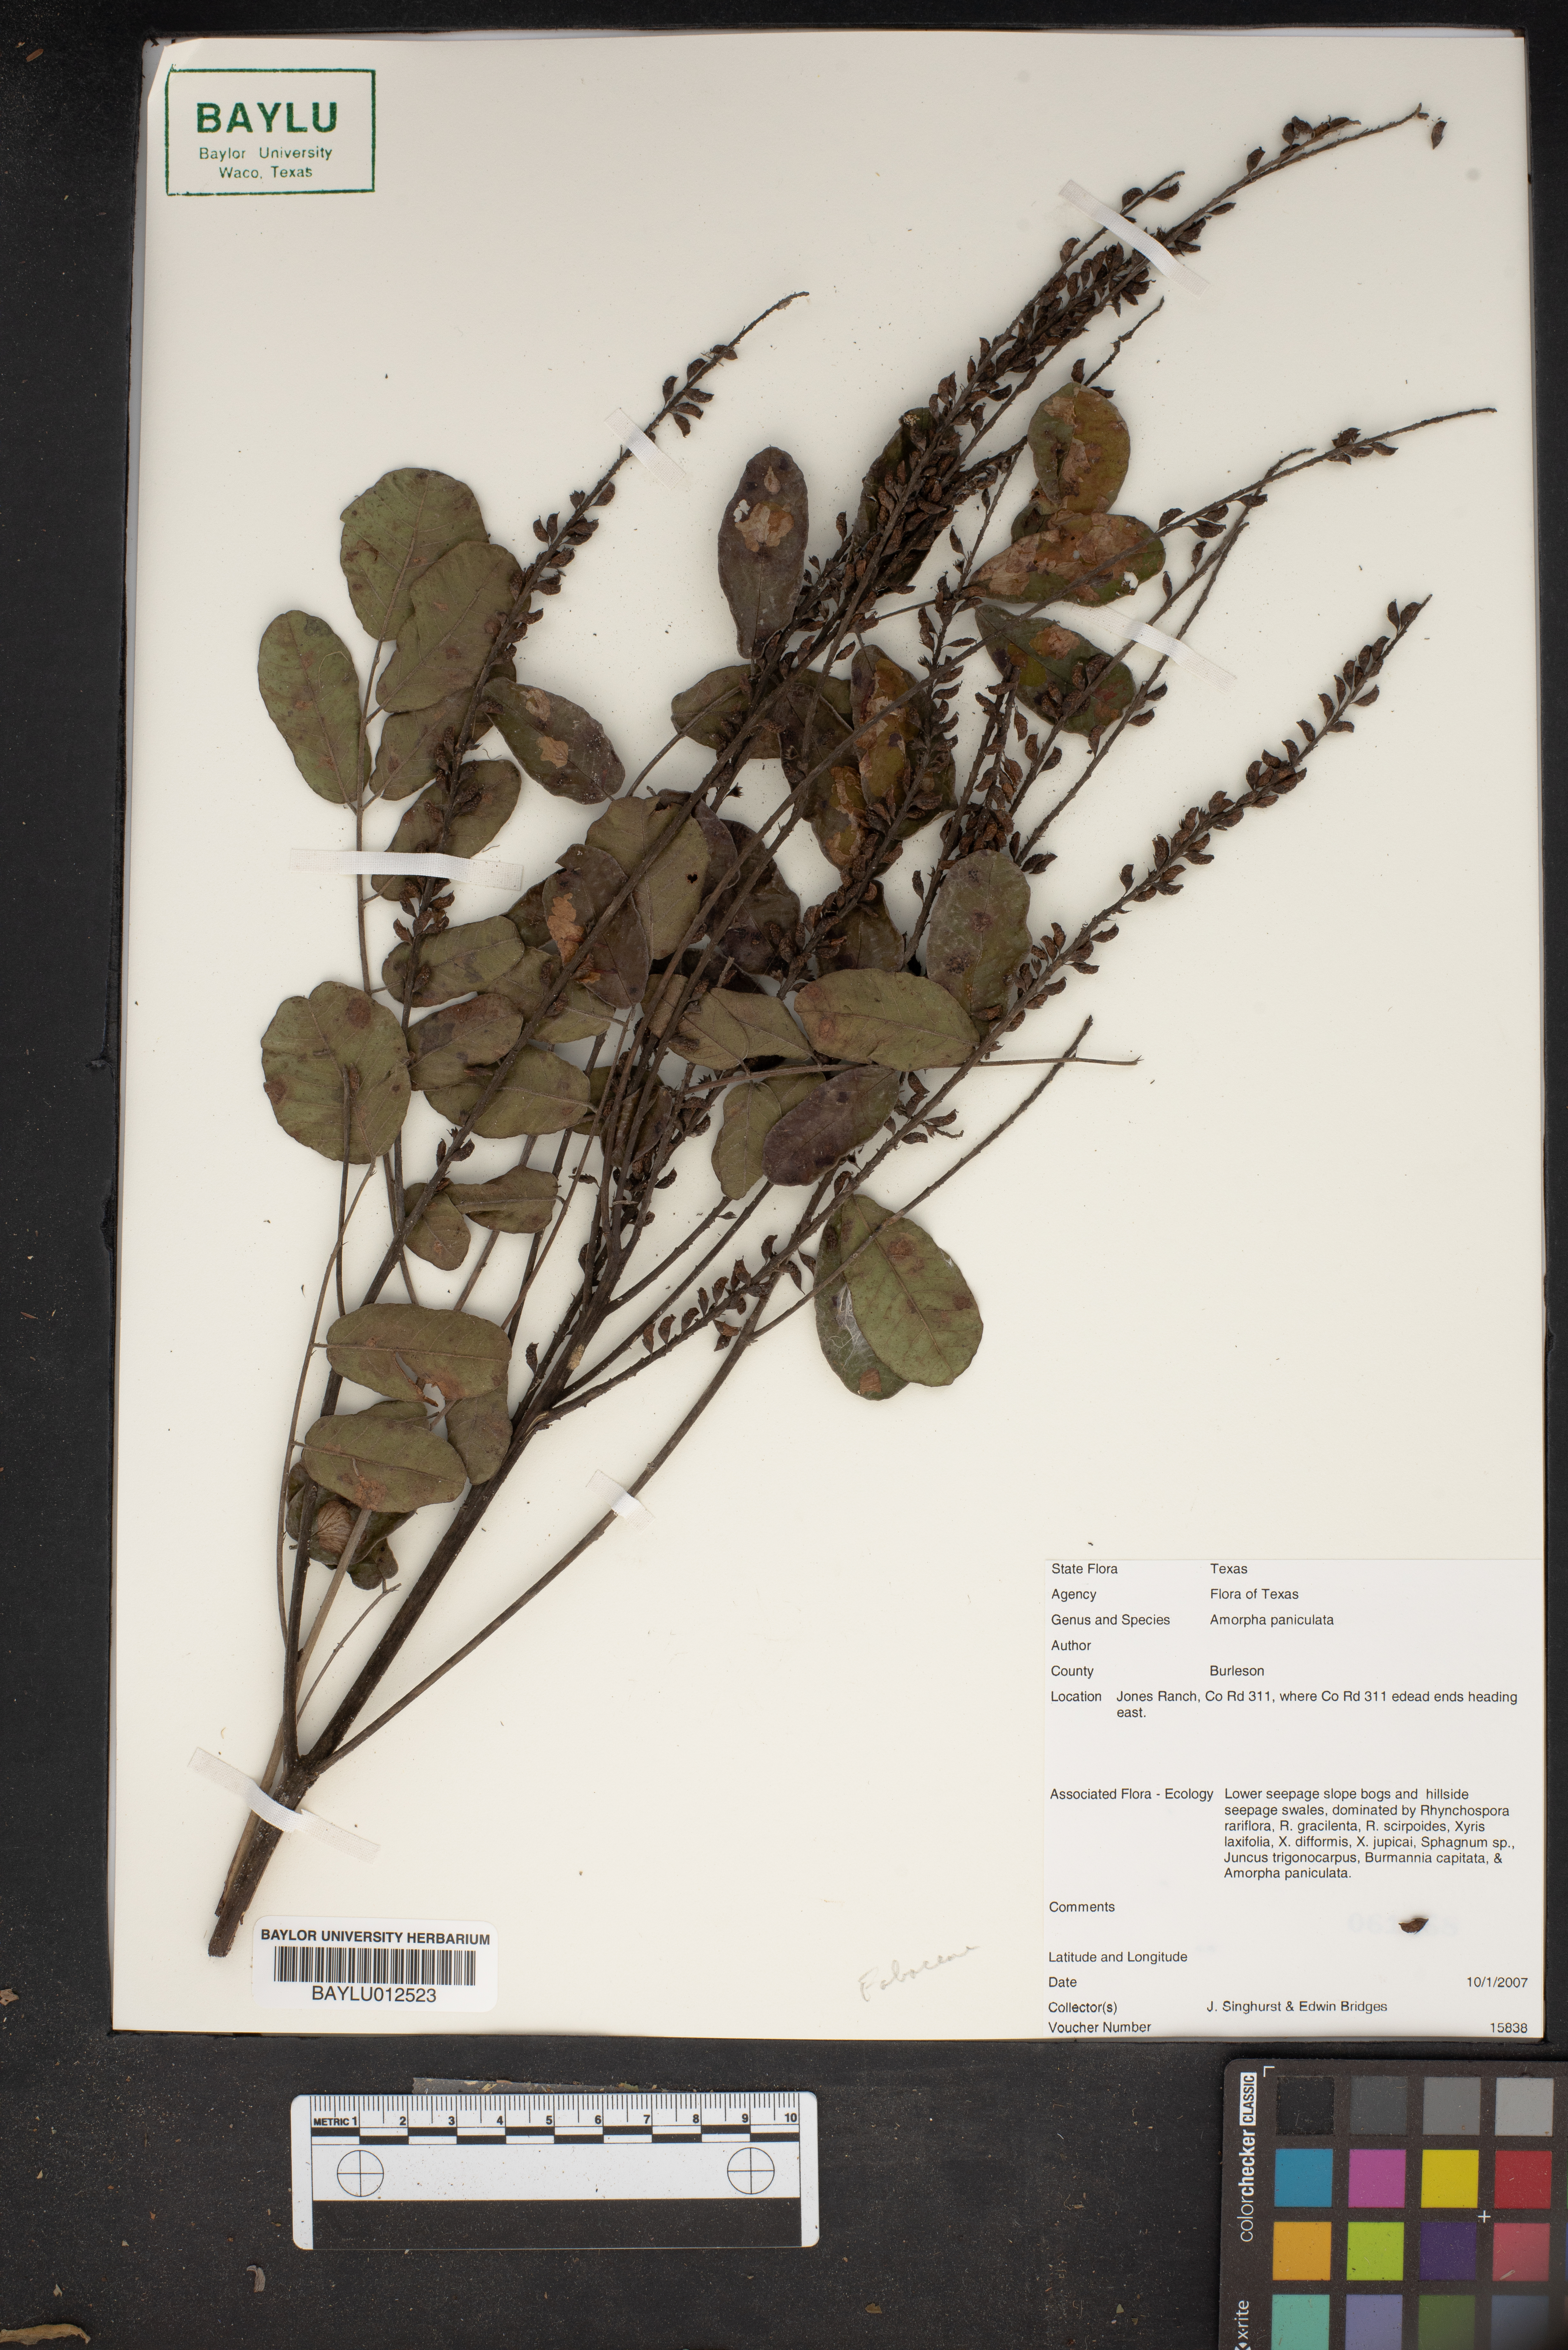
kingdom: Plantae
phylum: Tracheophyta
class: Magnoliopsida
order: Fabales
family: Fabaceae
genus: Amorpha
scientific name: Amorpha paniculata
